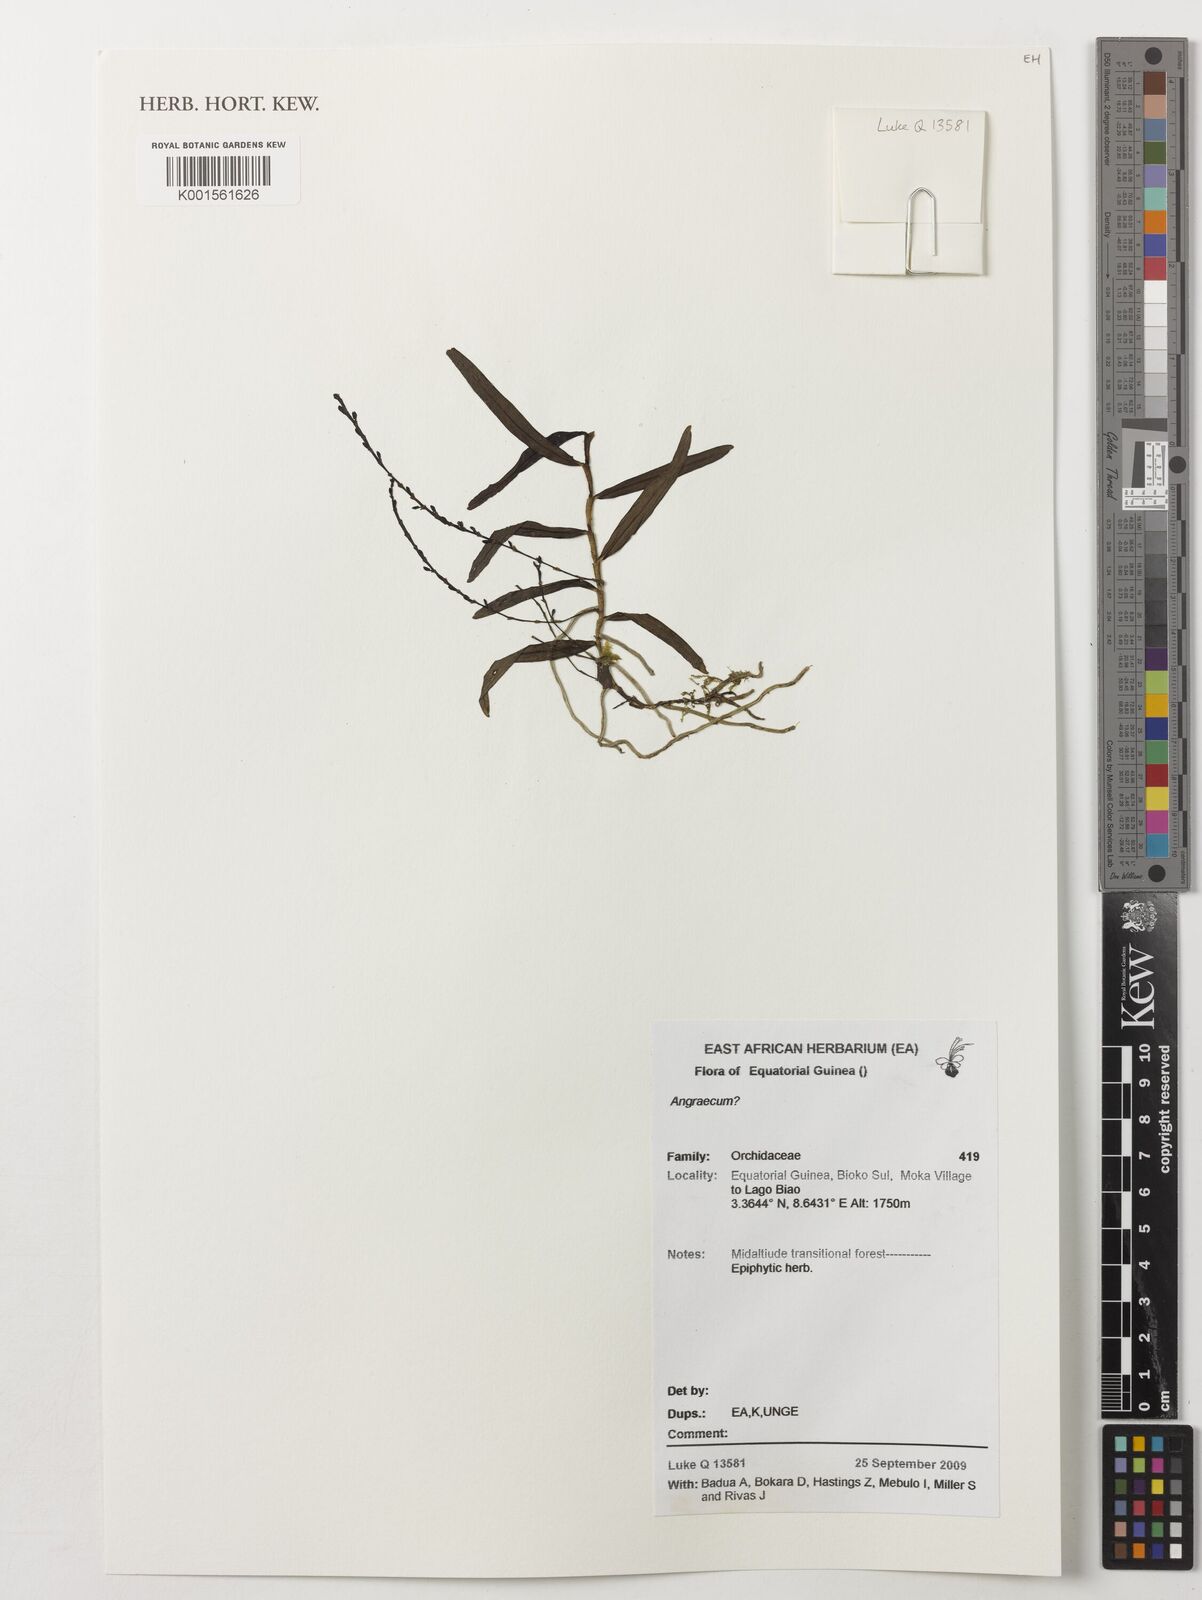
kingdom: Plantae
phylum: Tracheophyta
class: Liliopsida
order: Asparagales
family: Orchidaceae
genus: Angraecum
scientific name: Angraecum
